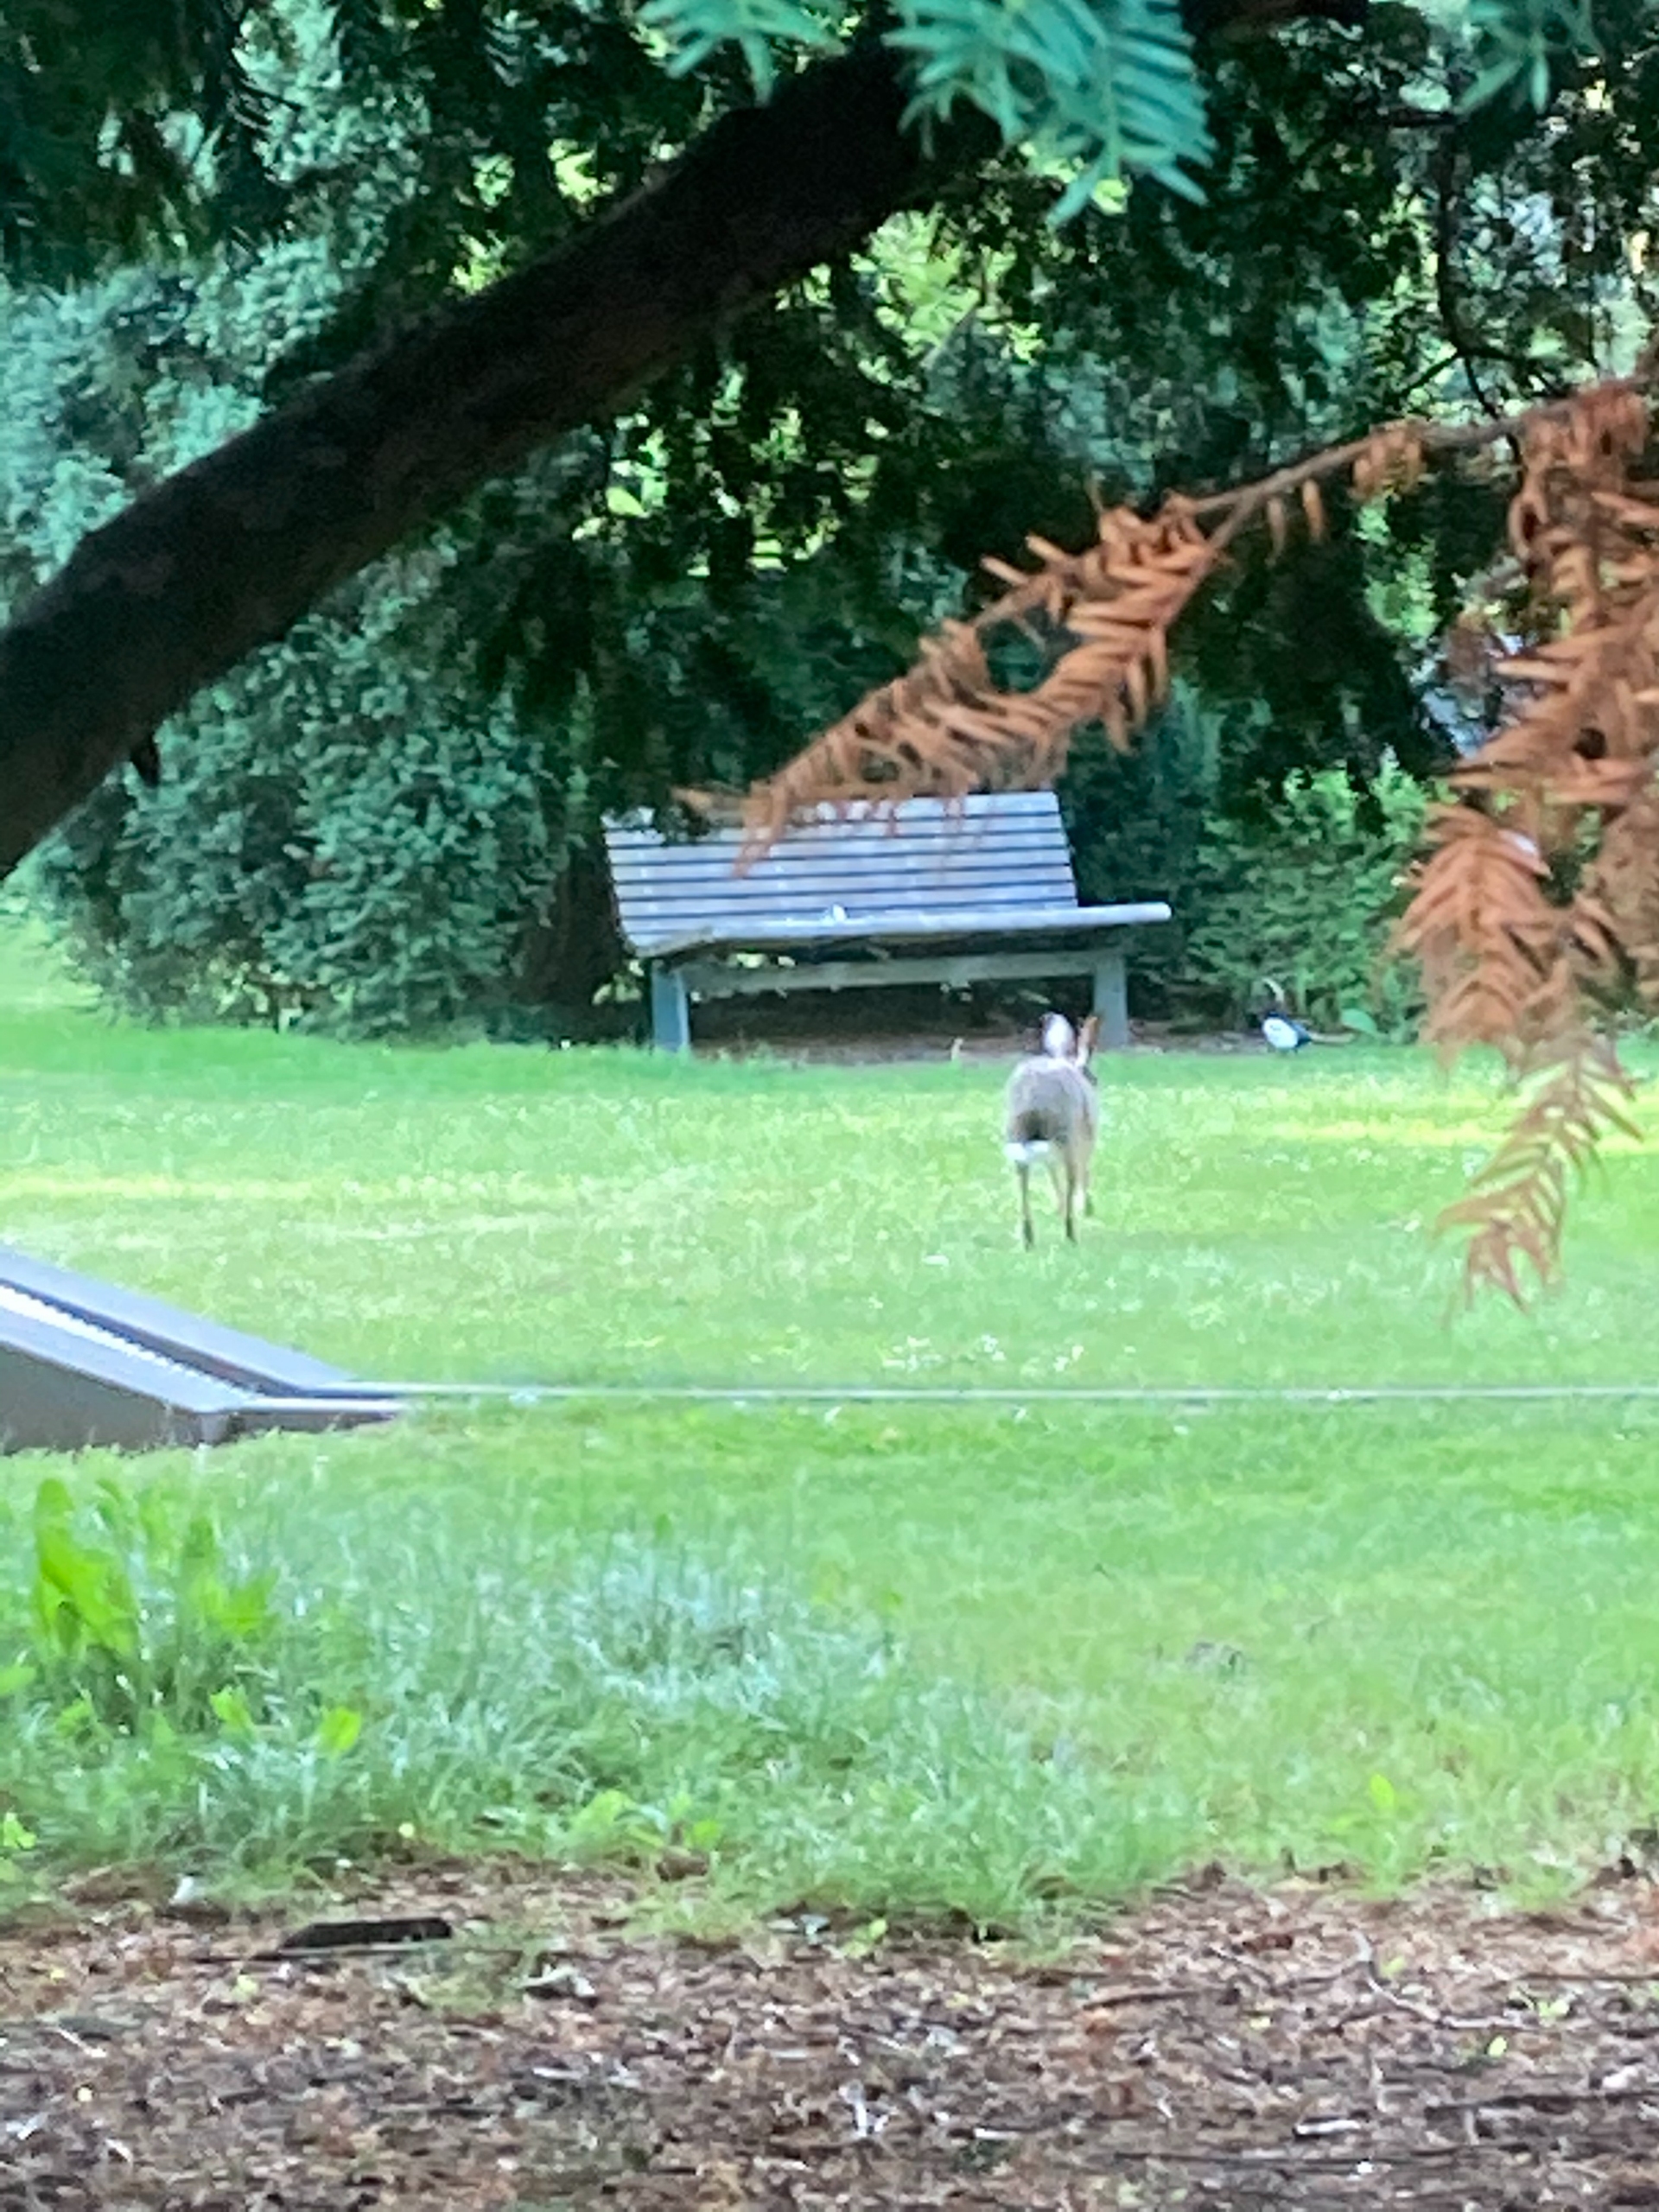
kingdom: Animalia
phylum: Chordata
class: Mammalia
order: Lagomorpha
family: Leporidae
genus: Lepus
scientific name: Lepus europaeus
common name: Hare
